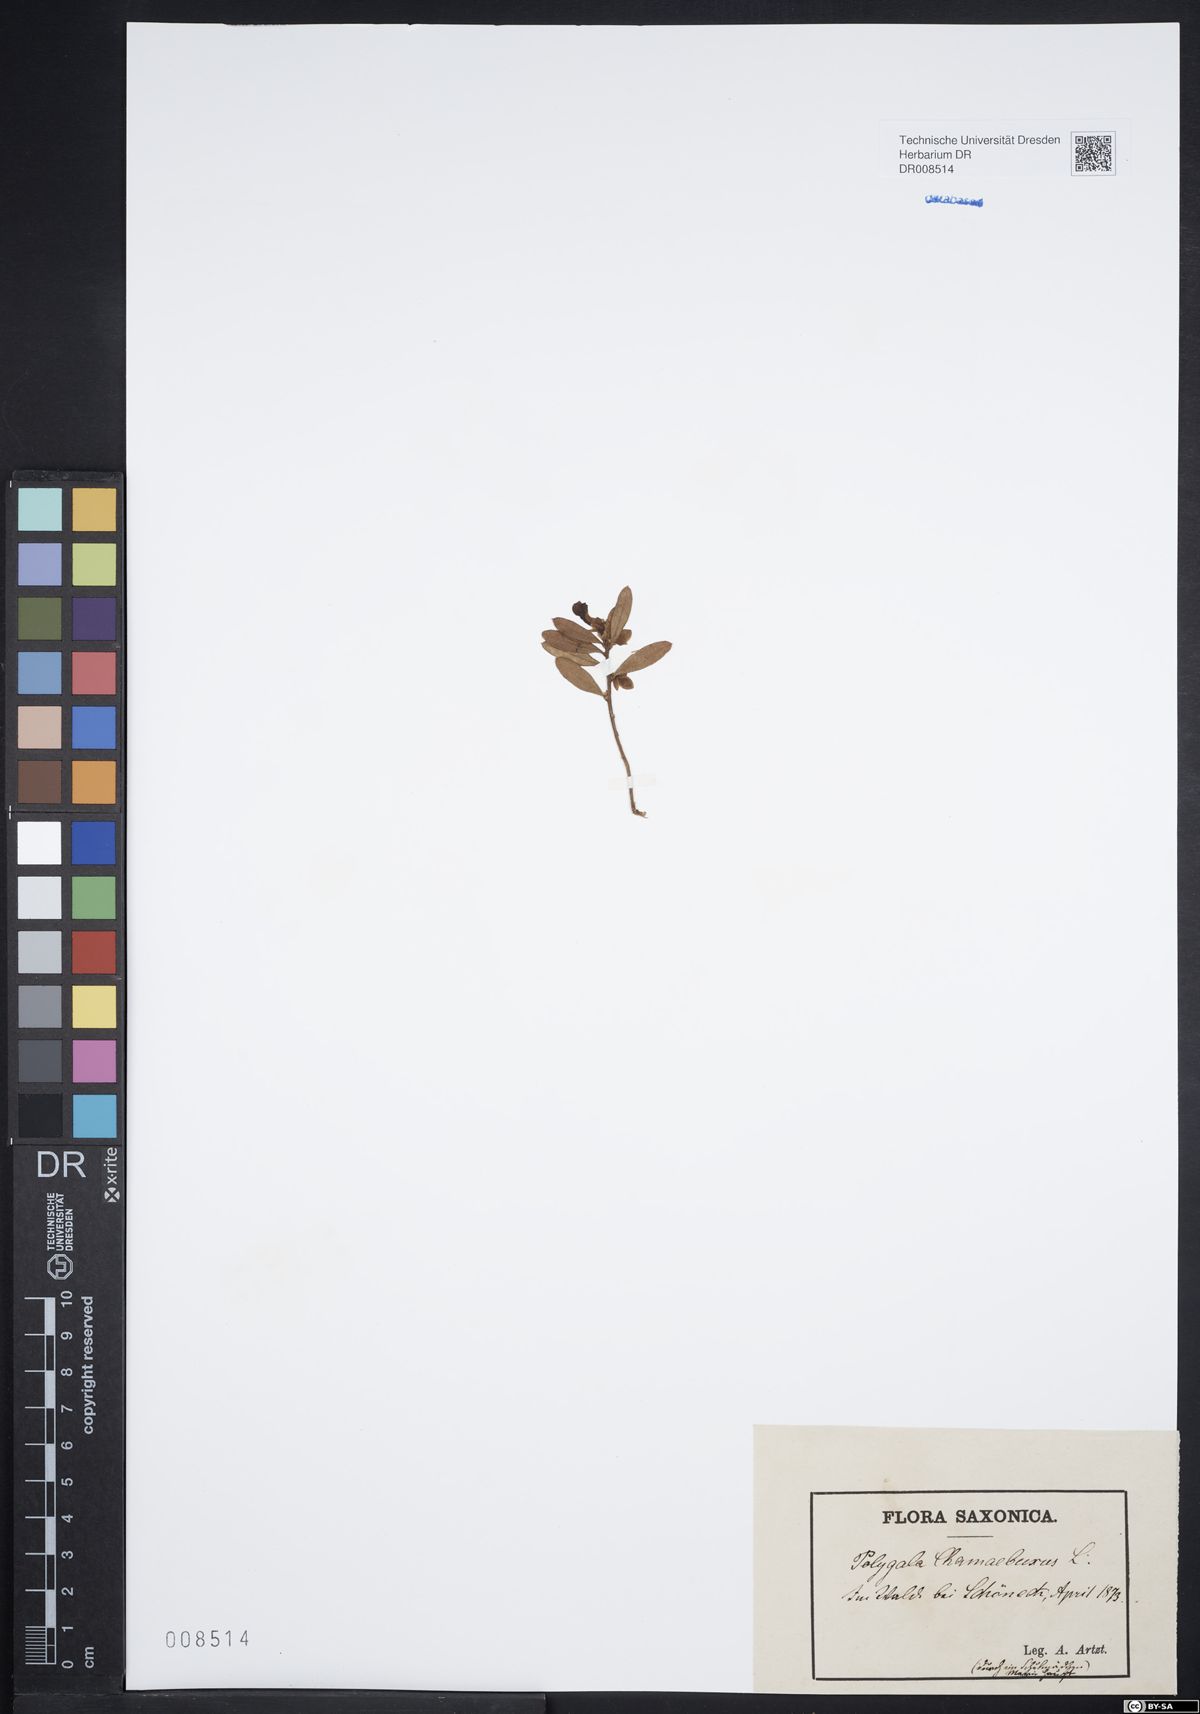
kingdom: Plantae
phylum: Tracheophyta
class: Magnoliopsida
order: Fabales
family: Polygalaceae
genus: Polygaloides
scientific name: Polygaloides chamaebuxus
